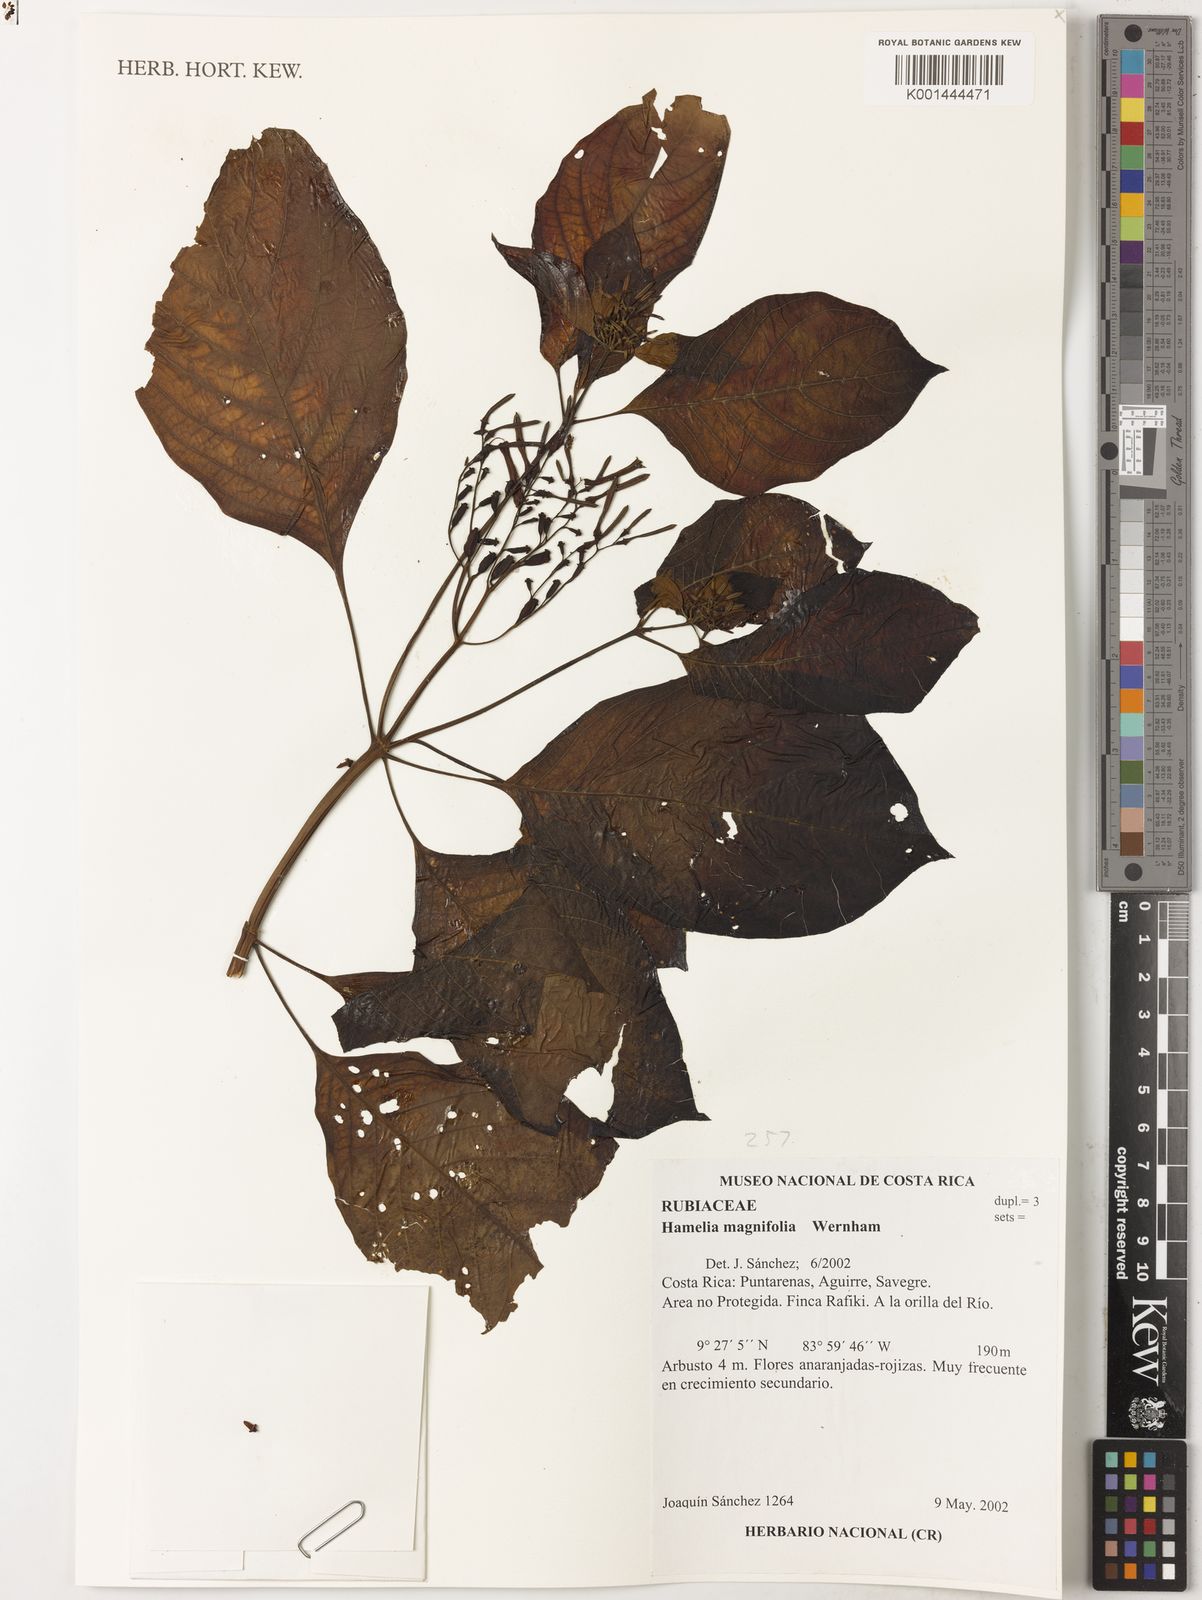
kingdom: Plantae
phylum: Tracheophyta
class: Magnoliopsida
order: Gentianales
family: Rubiaceae
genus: Hamelia
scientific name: Hamelia magnifolia
